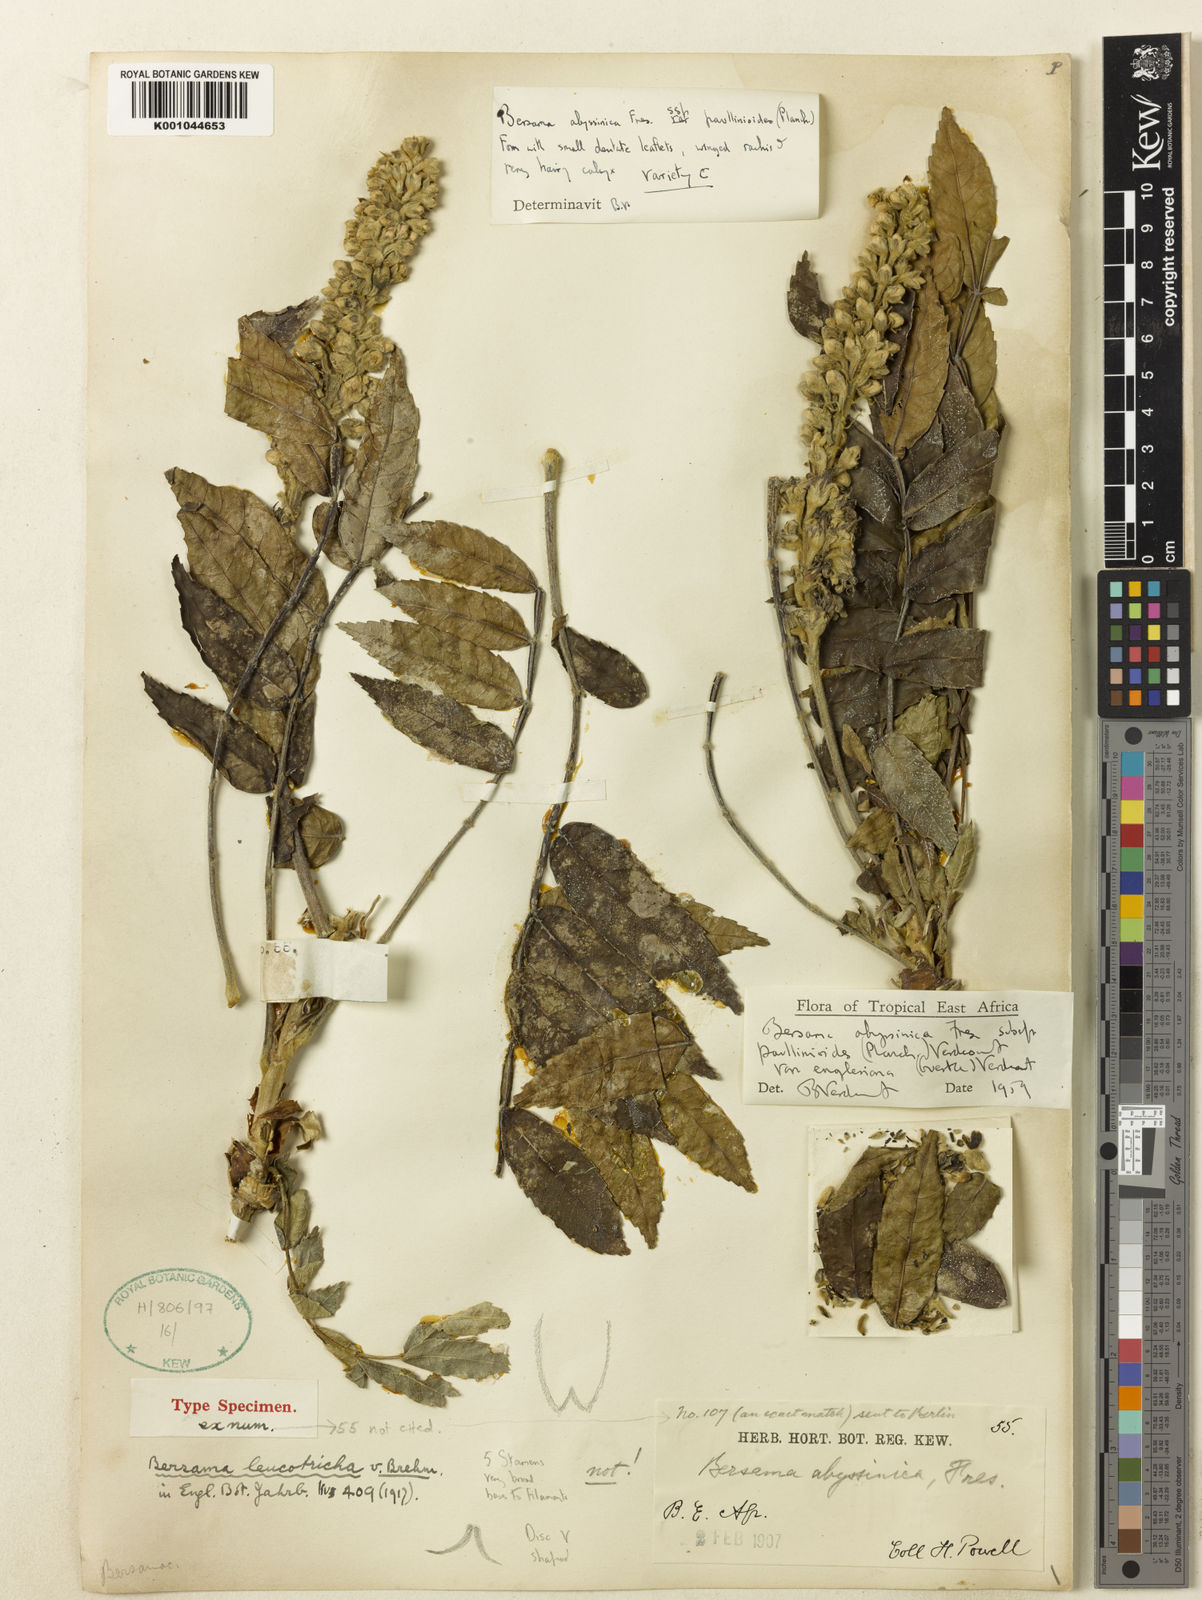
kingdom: Plantae
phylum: Tracheophyta
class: Magnoliopsida
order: Geraniales
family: Melianthaceae
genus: Bersama
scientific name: Bersama abyssinica
